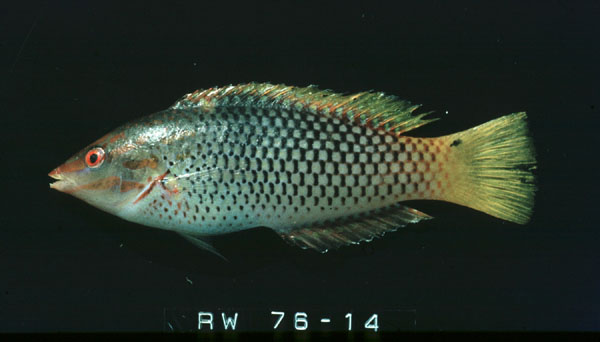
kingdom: Animalia
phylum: Chordata
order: Perciformes
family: Labridae
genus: Halichoeres
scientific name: Halichoeres hortulanus
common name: Checkerboard wrasse
